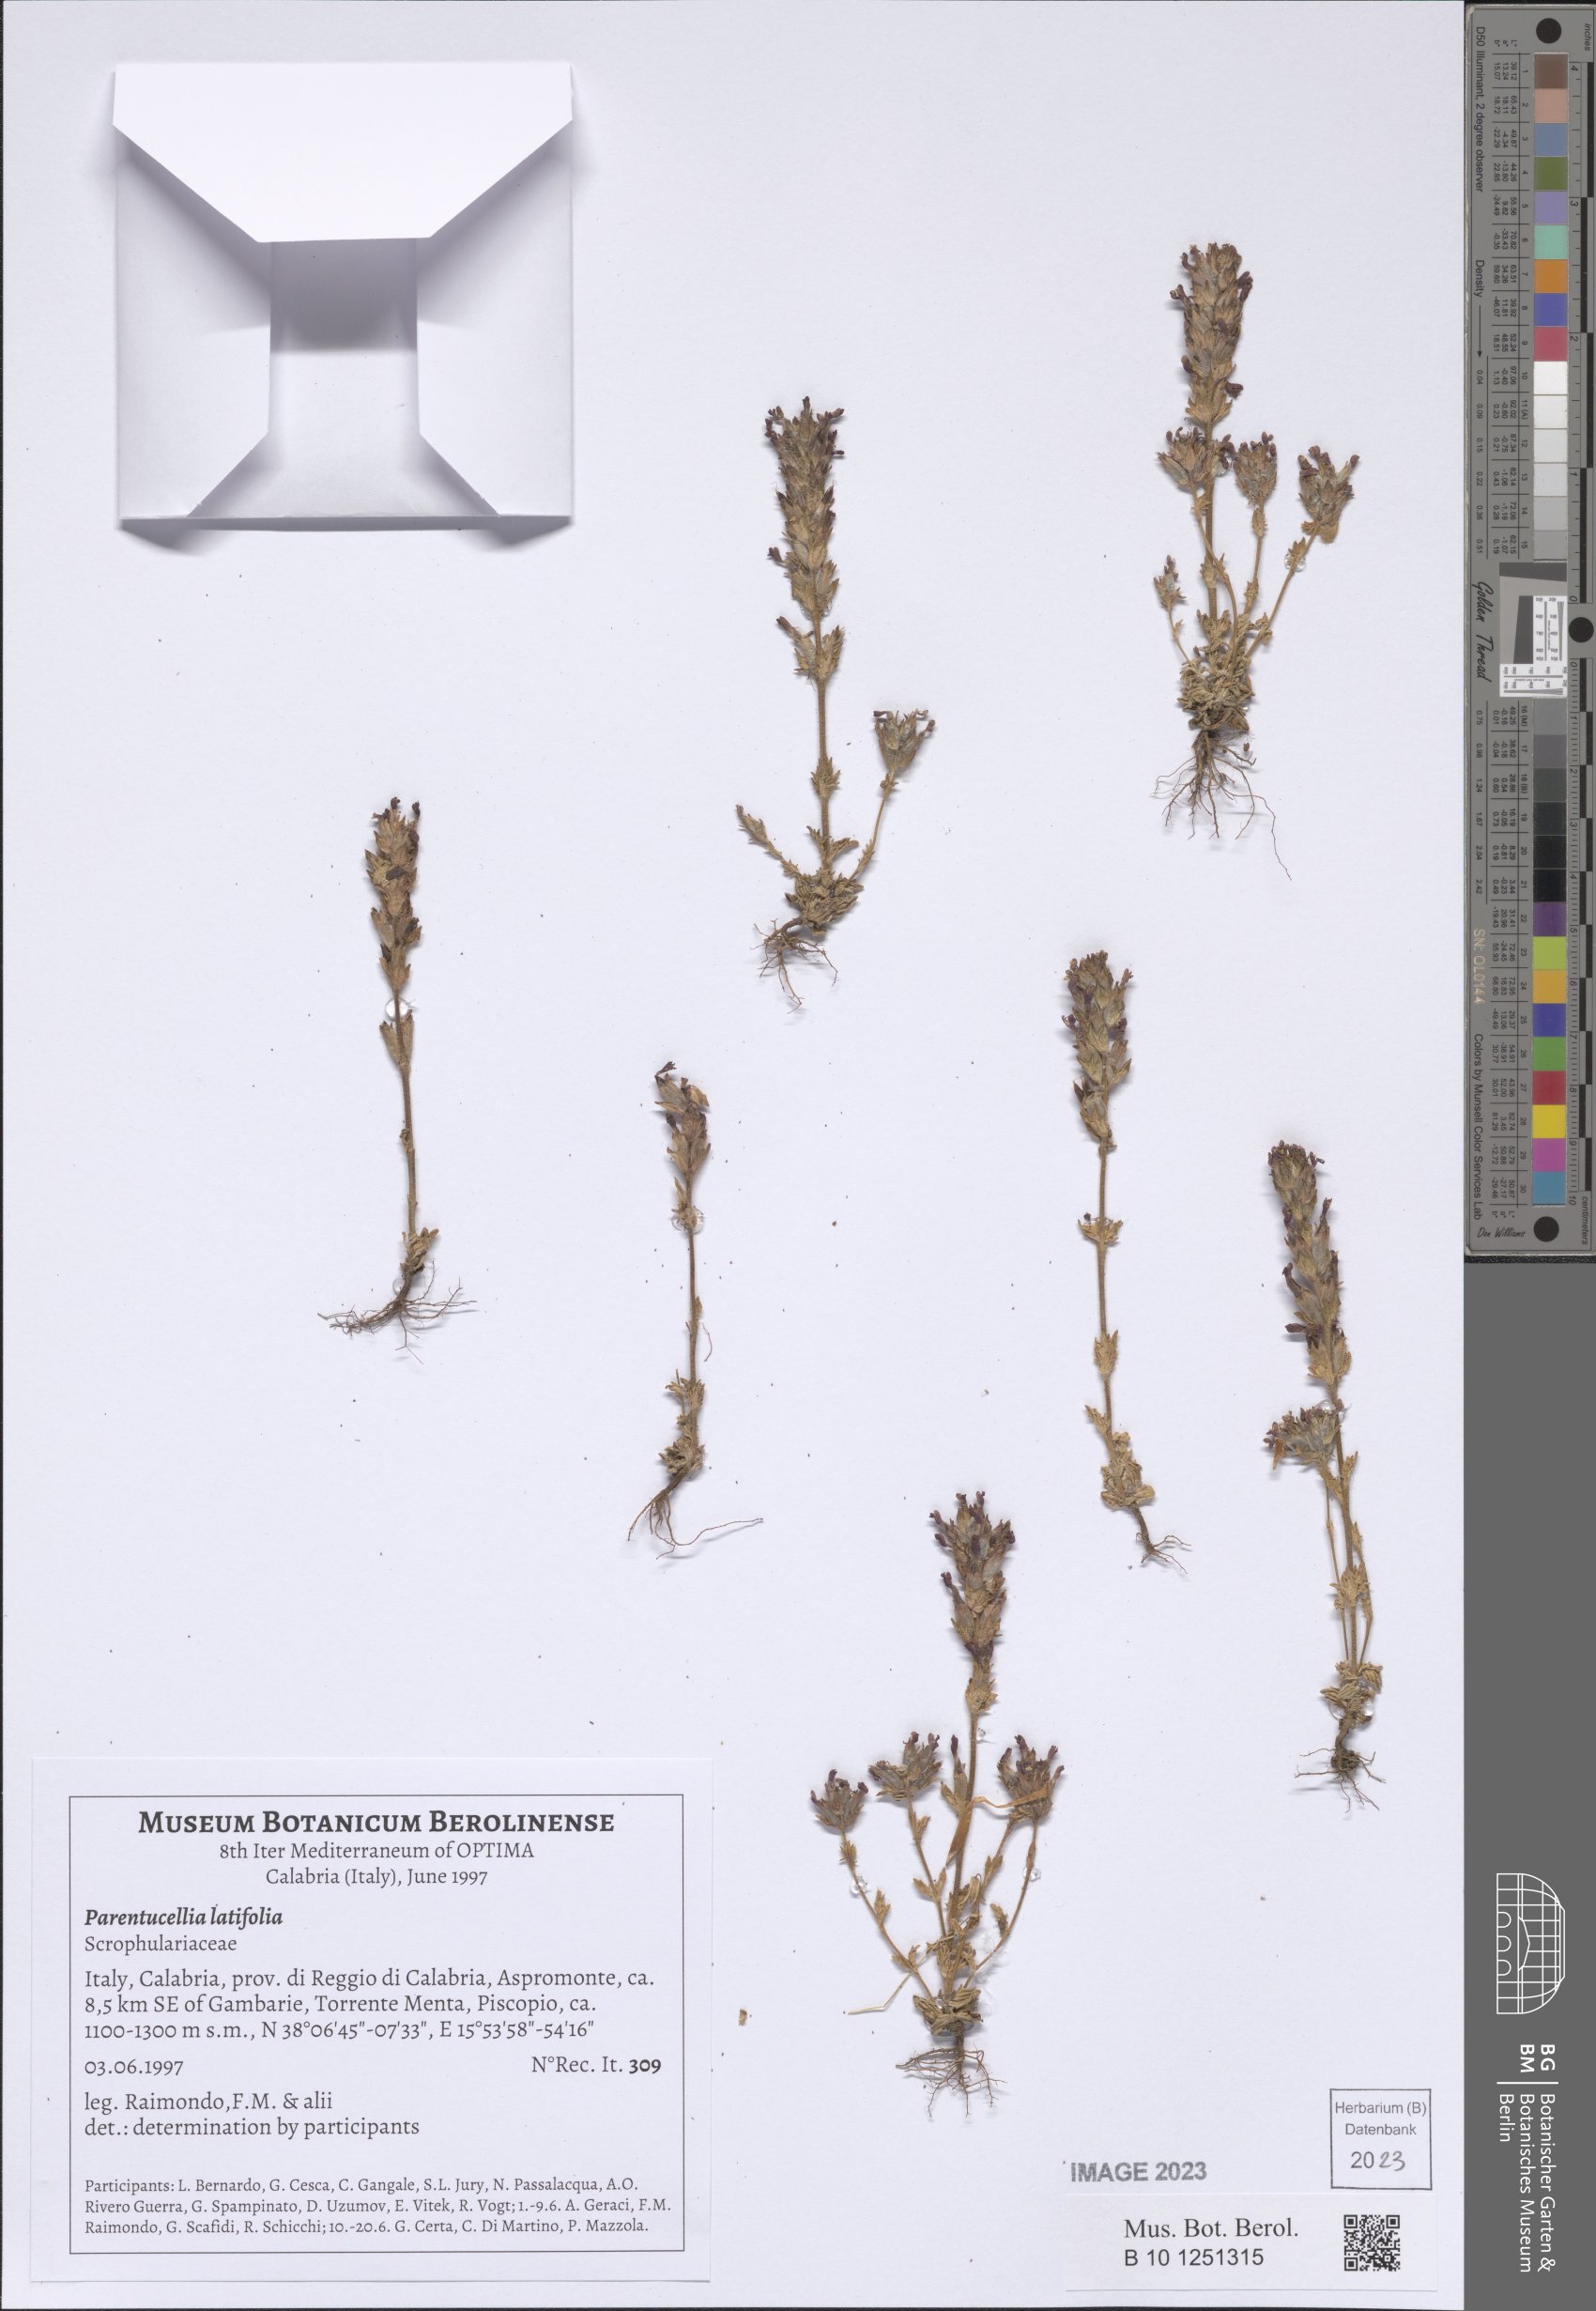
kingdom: Plantae
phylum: Tracheophyta
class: Magnoliopsida
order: Lamiales
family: Orobanchaceae
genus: Parentucellia
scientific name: Parentucellia latifolia
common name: Broadleaf glandweed
